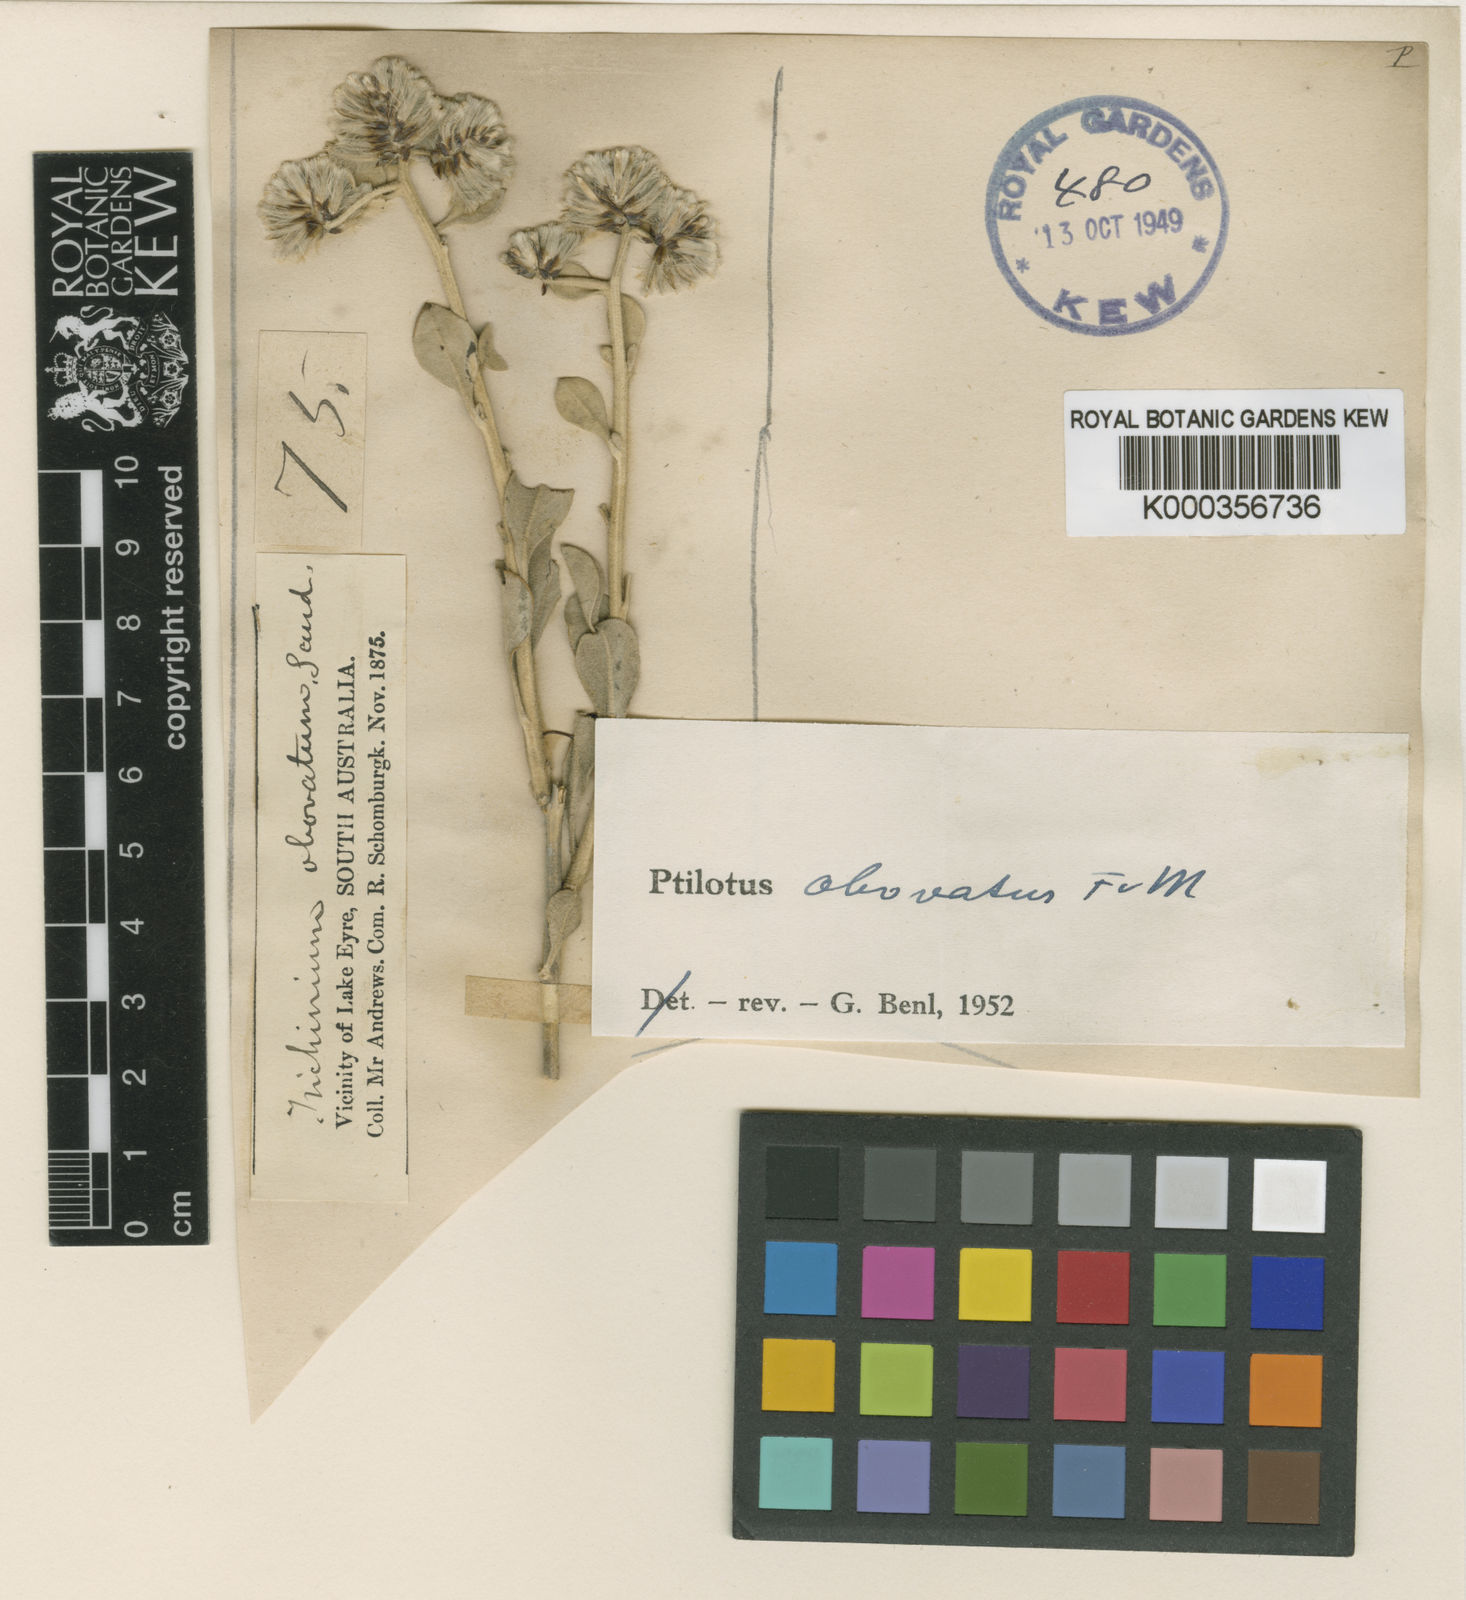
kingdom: Plantae
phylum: Tracheophyta
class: Magnoliopsida
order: Caryophyllales
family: Amaranthaceae
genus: Ptilotus
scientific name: Ptilotus obovatus
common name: Cottonbush
